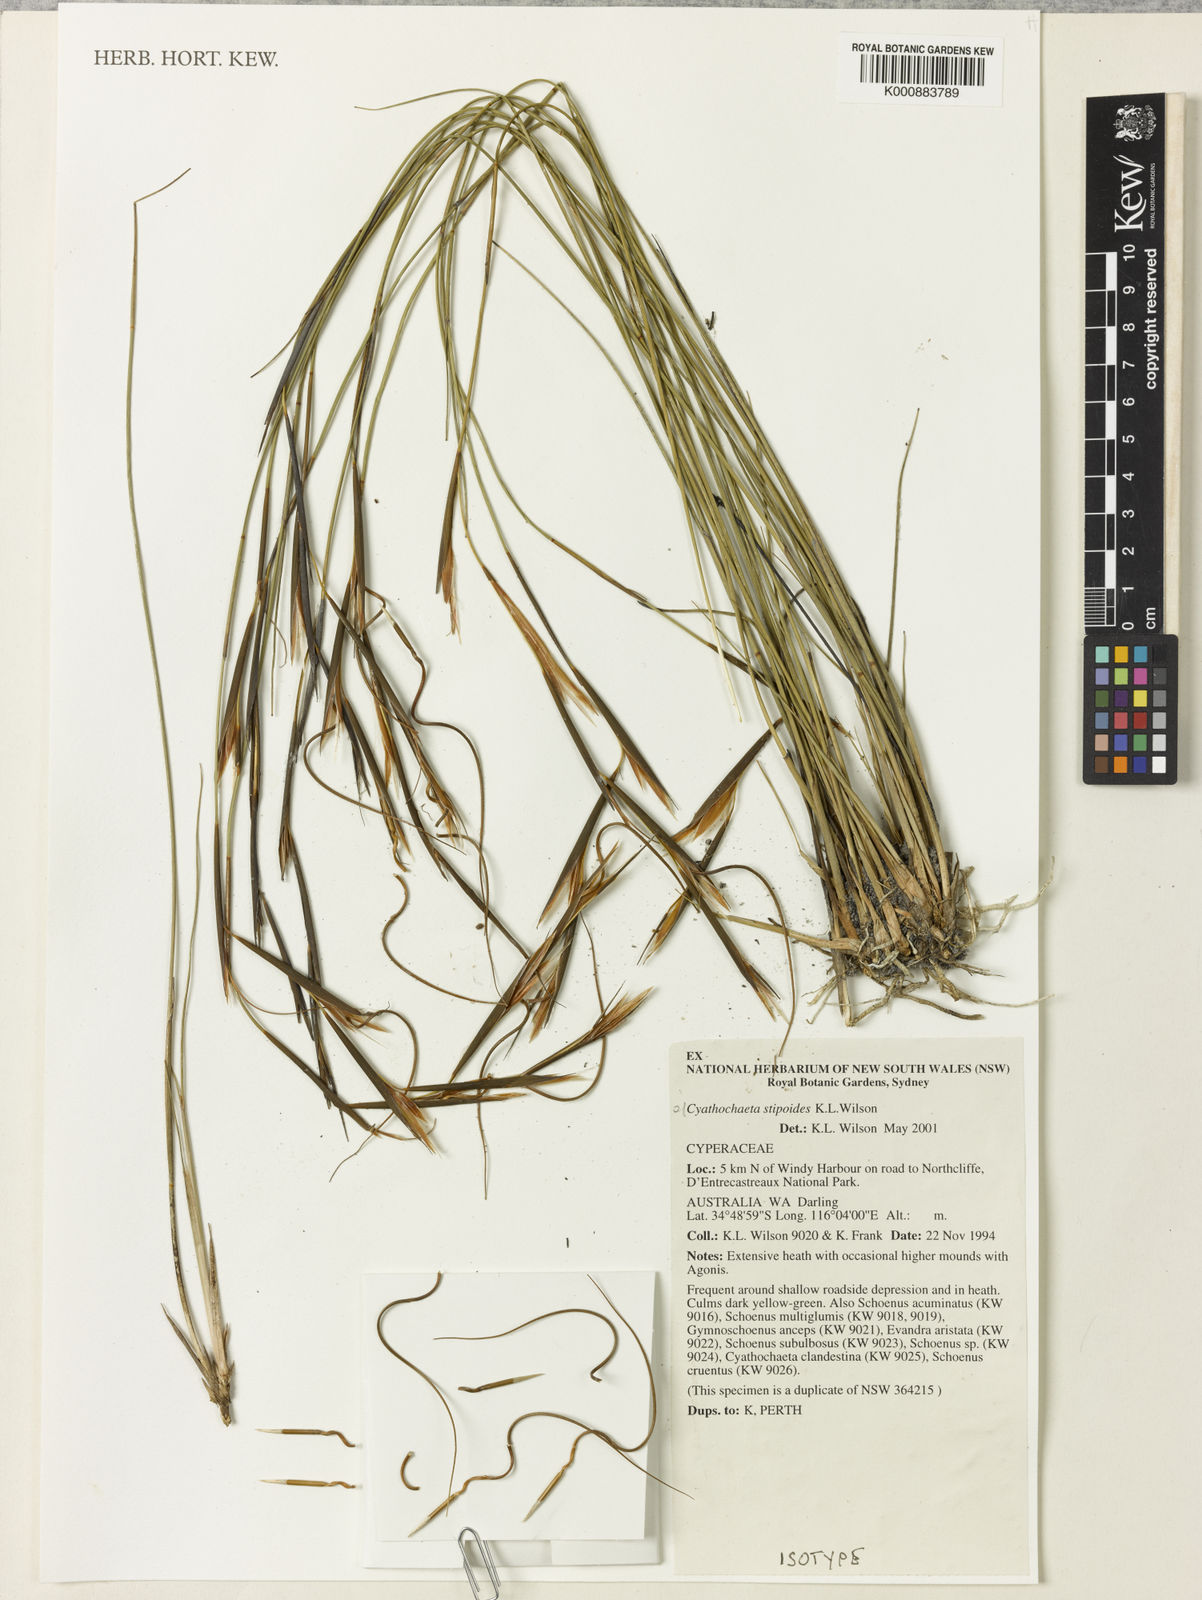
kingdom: Plantae
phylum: Tracheophyta
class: Liliopsida
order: Poales
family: Cyperaceae
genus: Cyathochaeta
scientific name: Cyathochaeta stipoides
